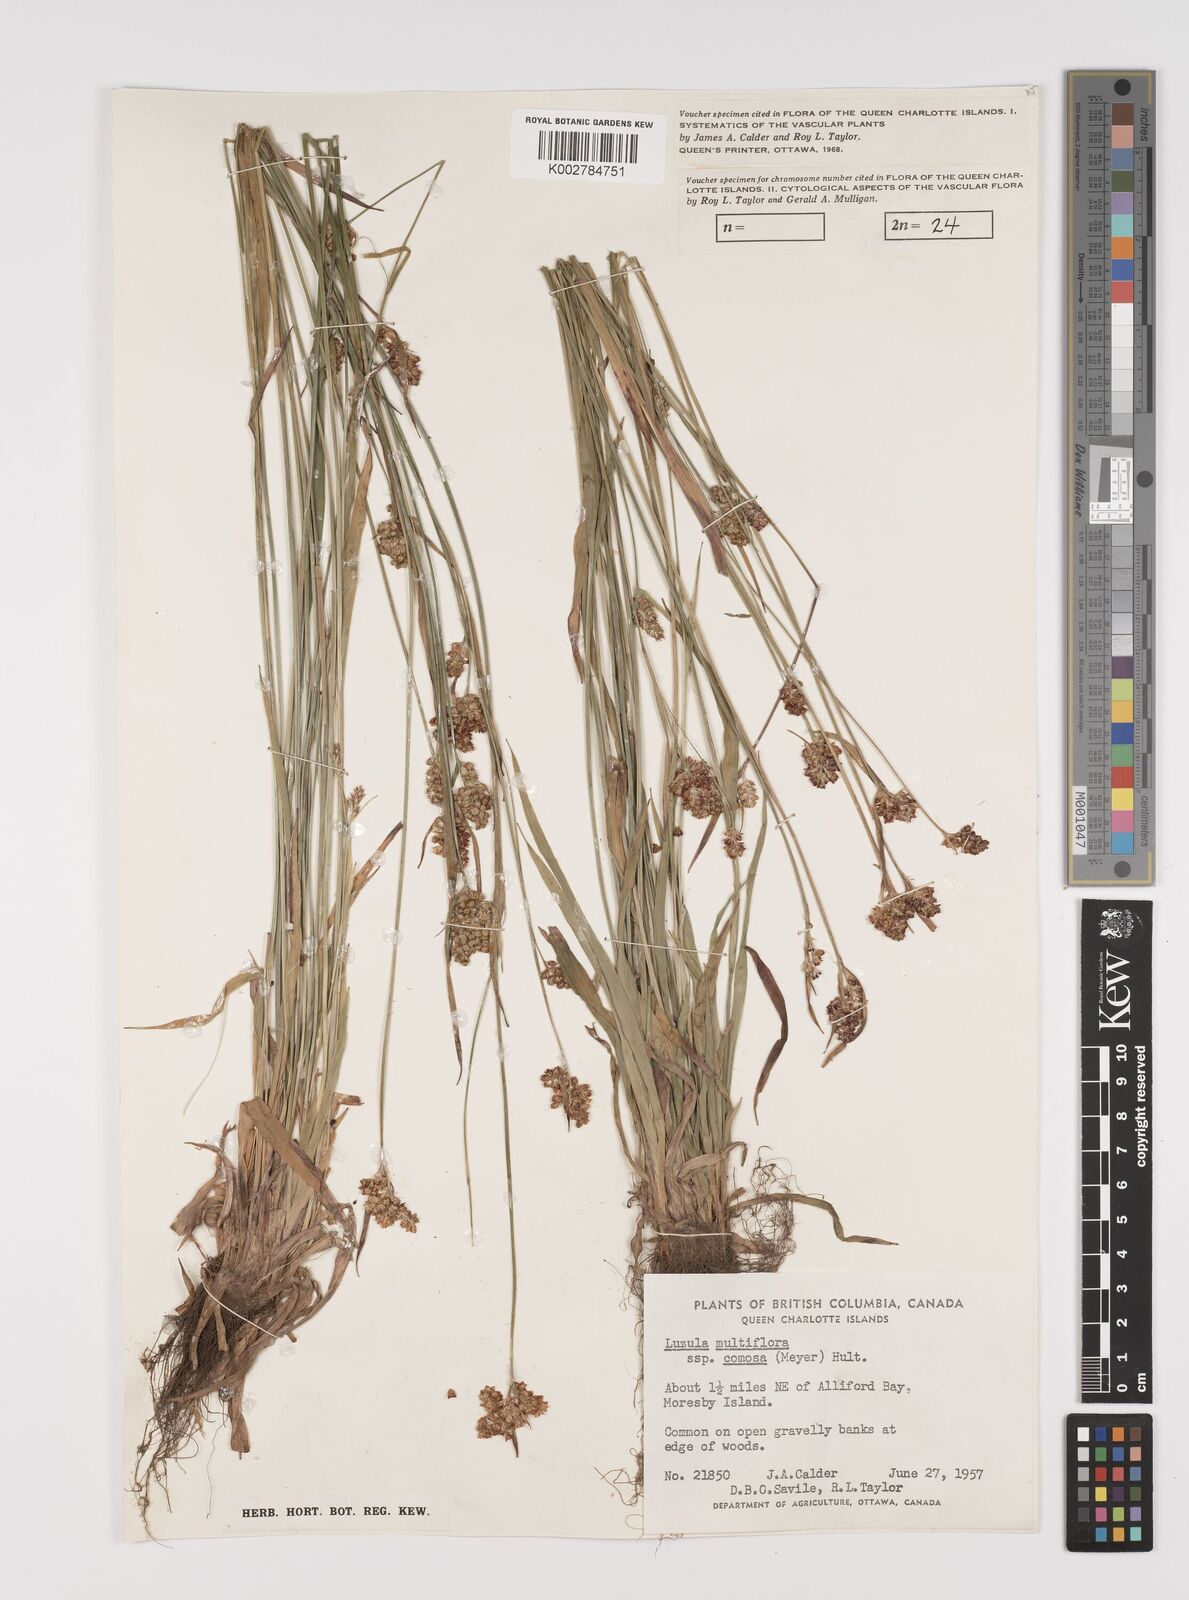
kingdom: Plantae
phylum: Tracheophyta
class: Liliopsida
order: Poales
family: Juncaceae
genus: Luzula
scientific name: Luzula
